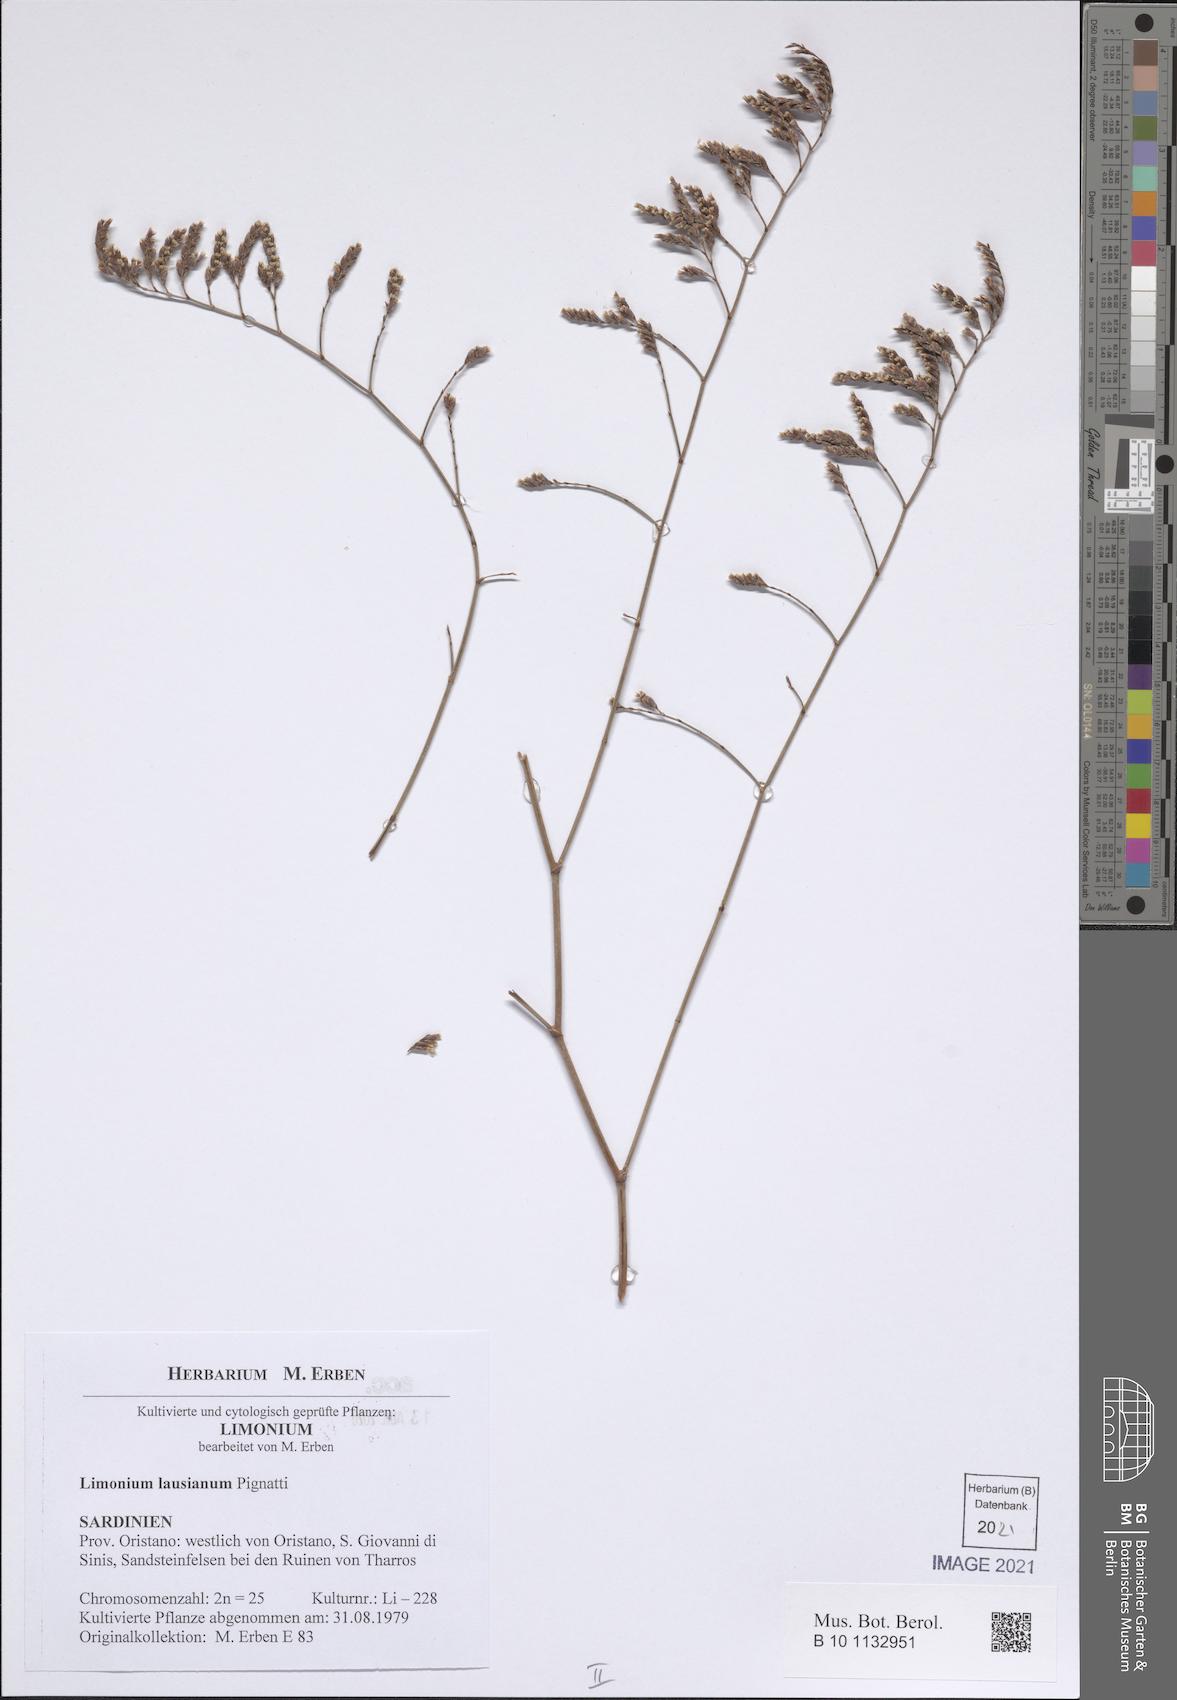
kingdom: Plantae
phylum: Tracheophyta
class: Magnoliopsida
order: Caryophyllales
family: Plumbaginaceae
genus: Limonium
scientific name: Limonium lausianum
